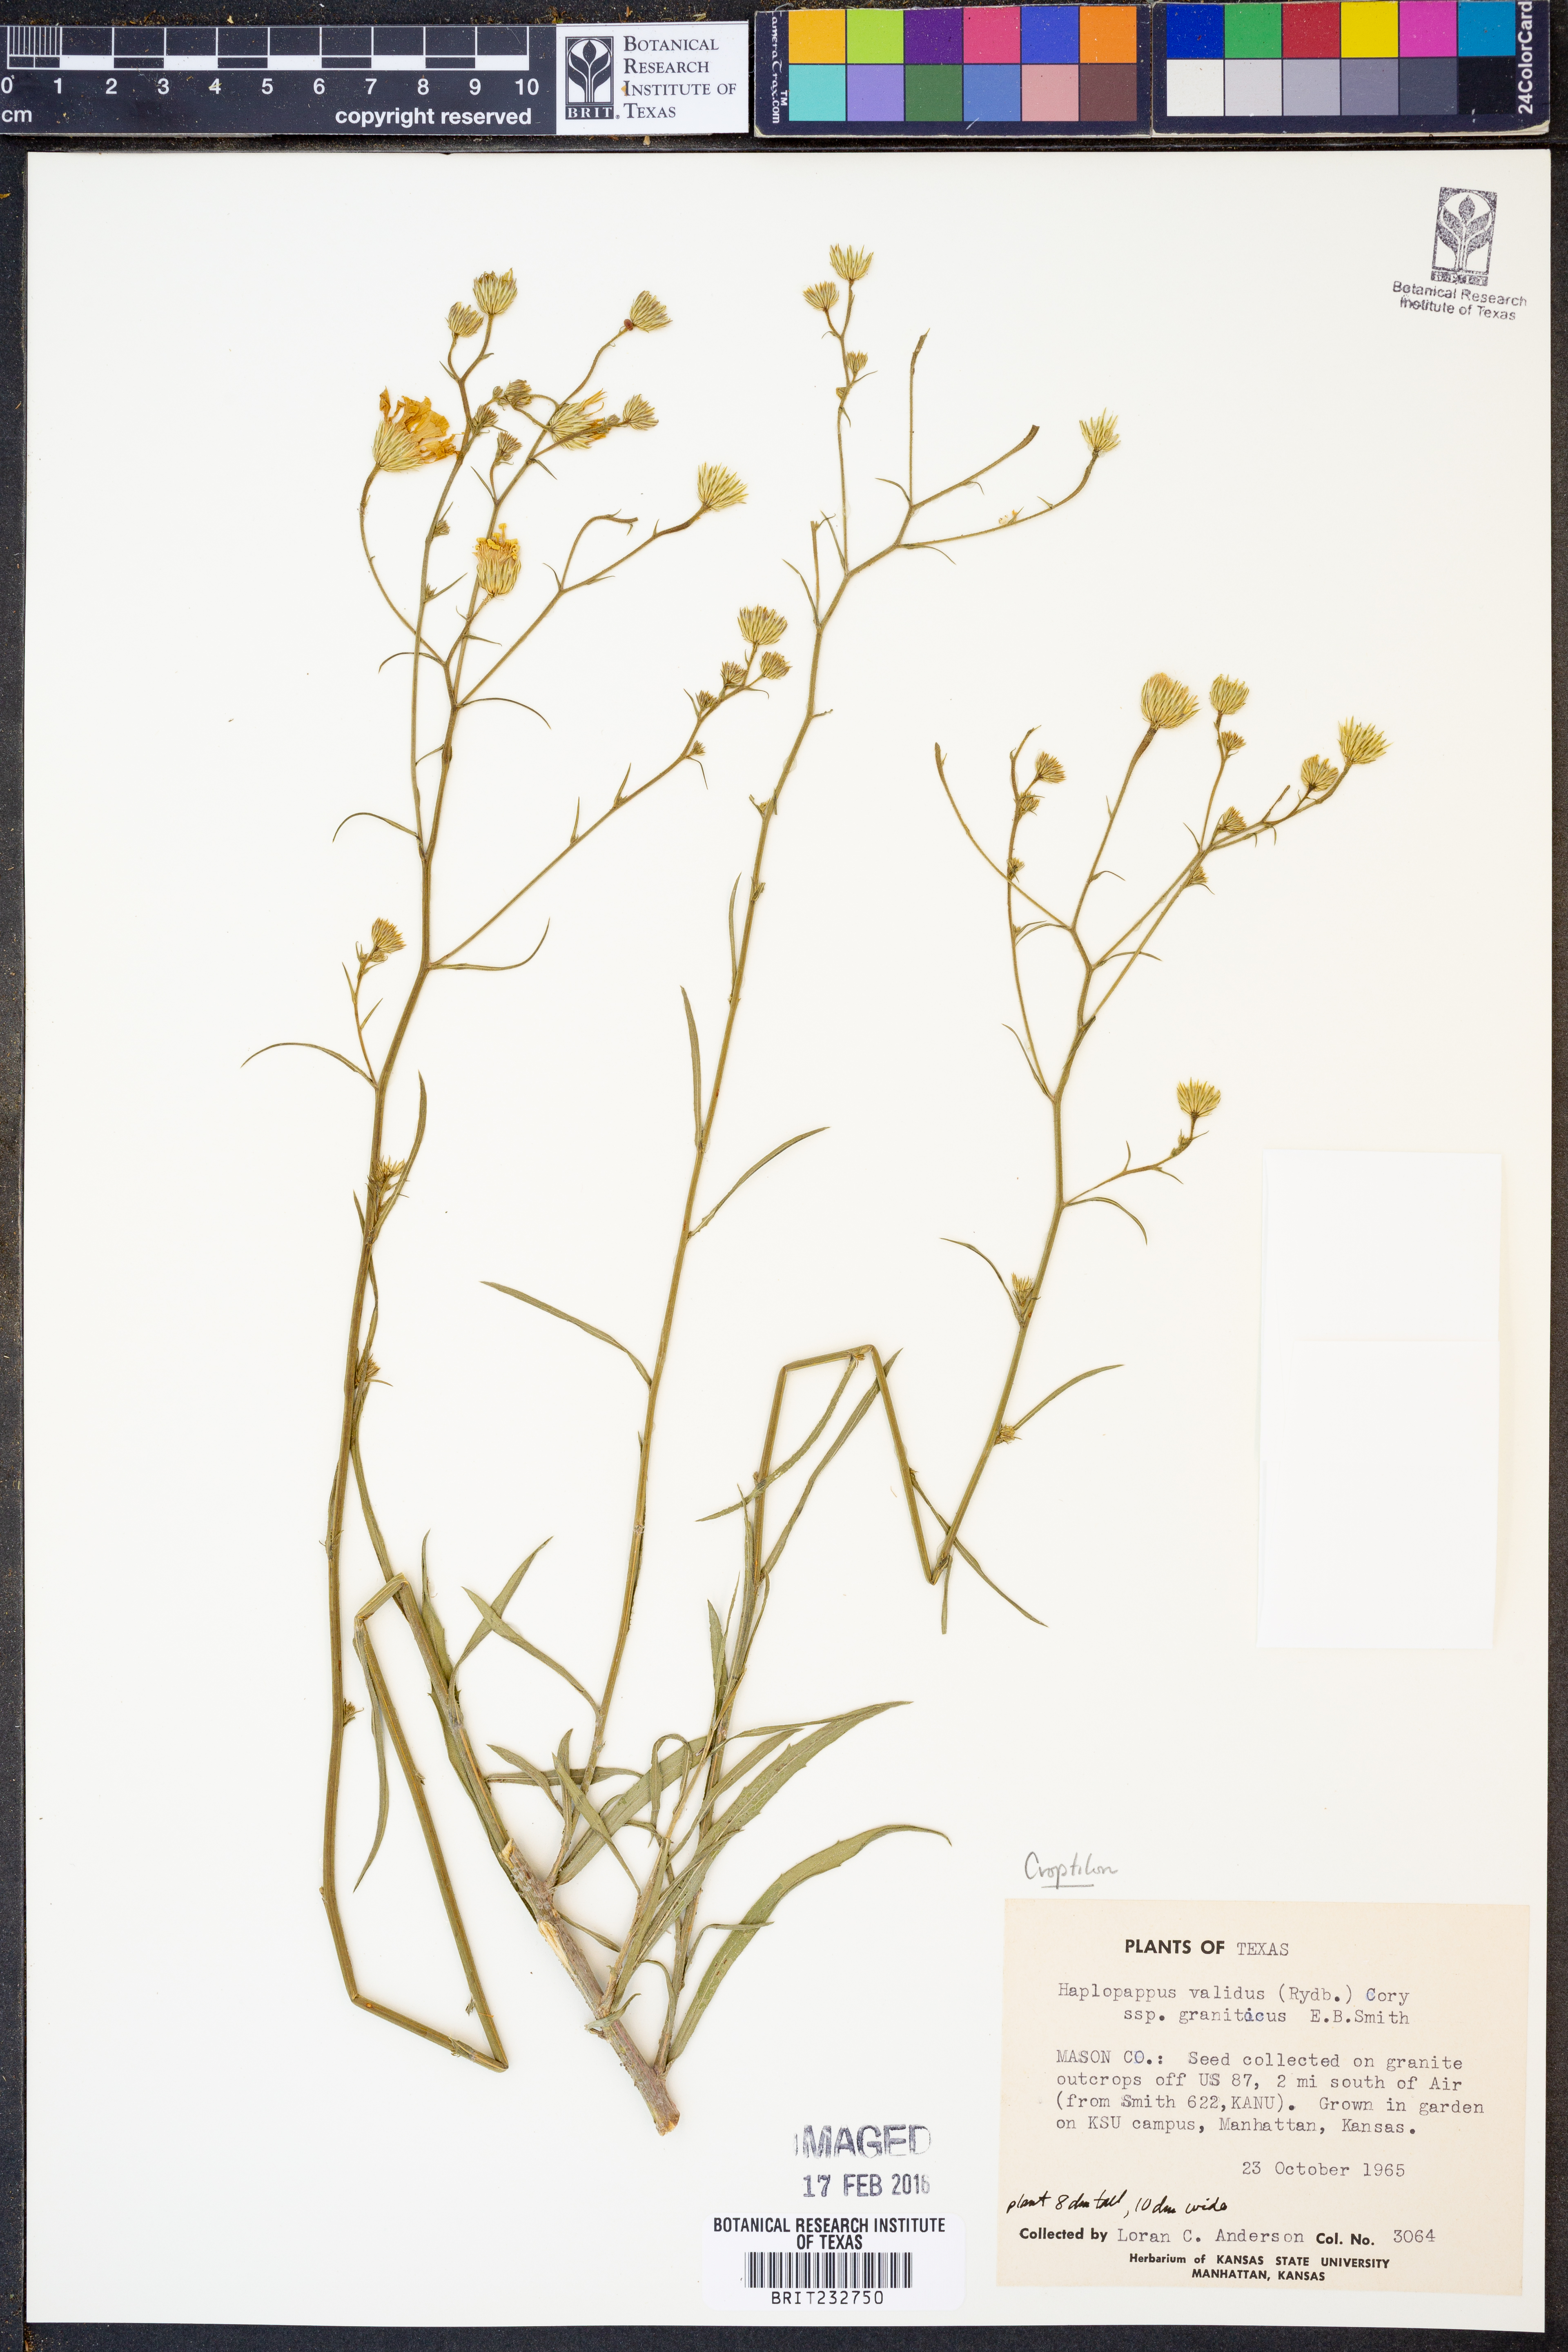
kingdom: Plantae
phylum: Tracheophyta
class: Magnoliopsida
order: Asterales
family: Asteraceae
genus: Croptilon
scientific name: Croptilon
